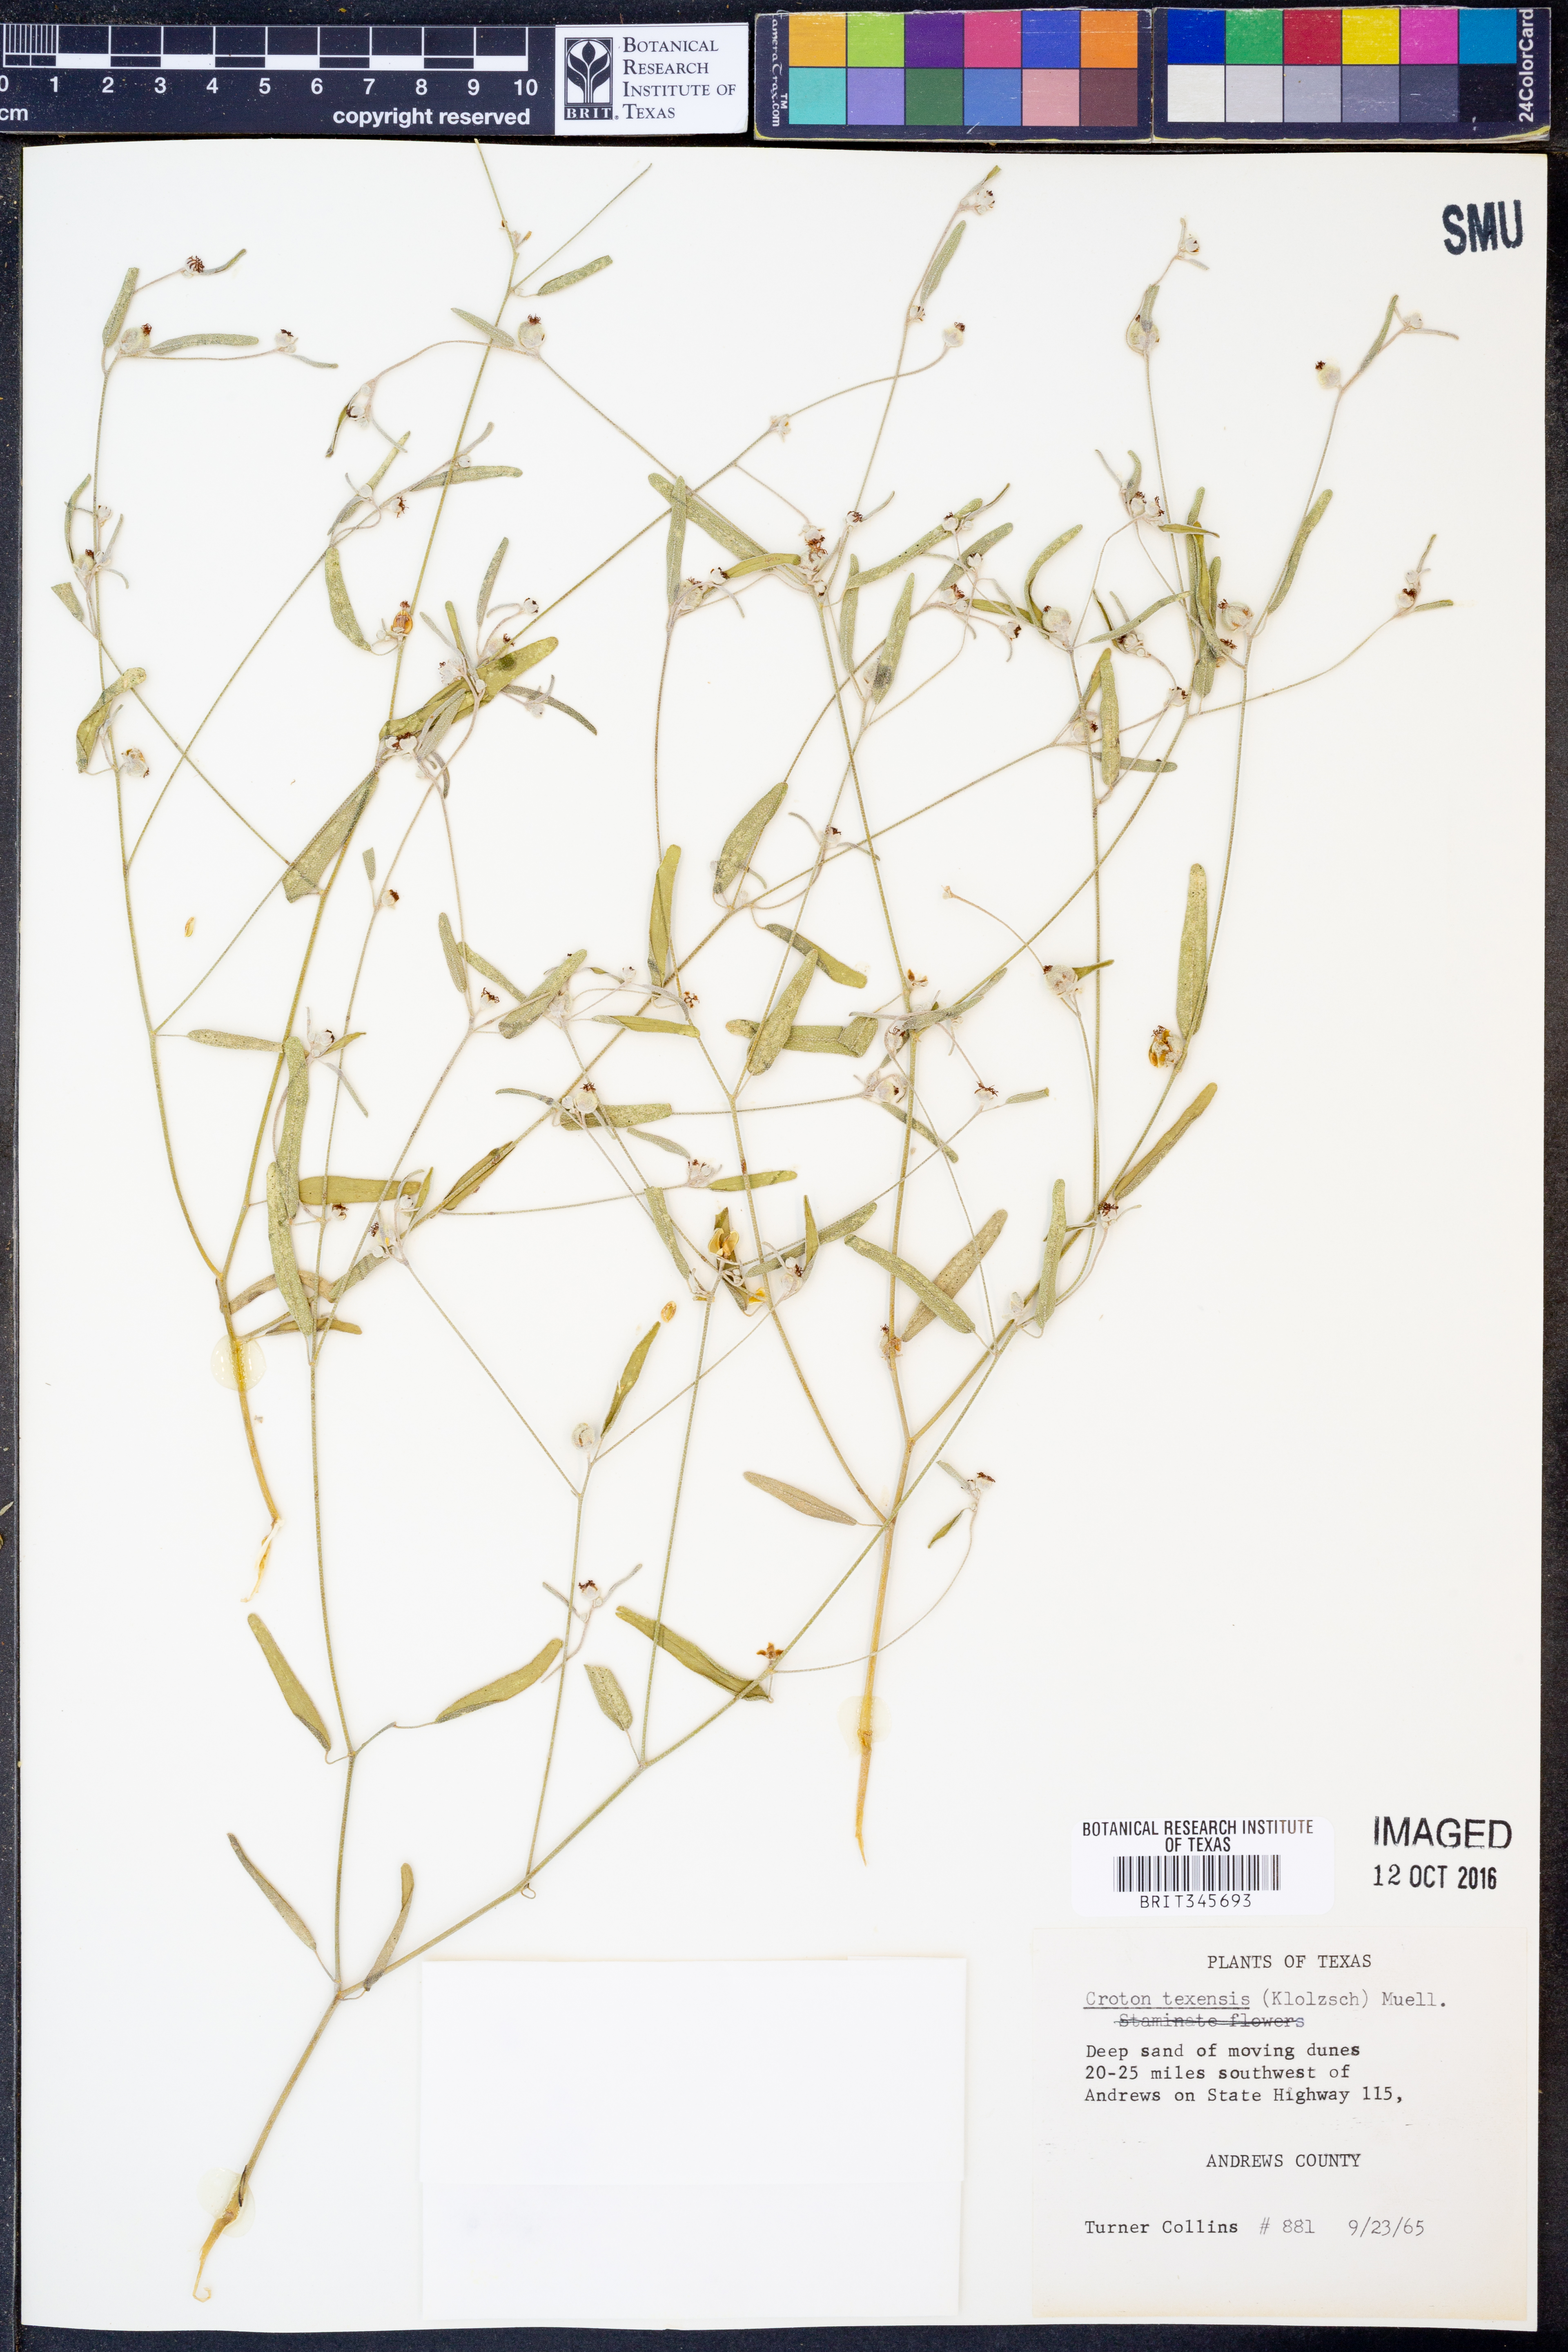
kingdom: Plantae
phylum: Tracheophyta
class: Magnoliopsida
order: Malpighiales
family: Euphorbiaceae
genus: Croton
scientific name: Croton texensis
